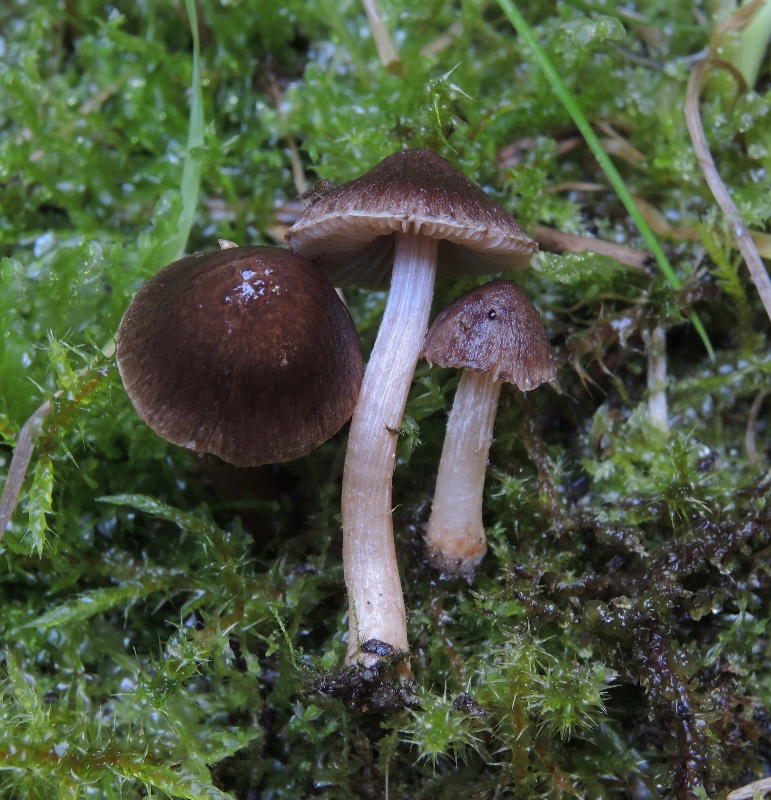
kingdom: Fungi
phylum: Basidiomycota
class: Agaricomycetes
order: Agaricales
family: Inocybaceae
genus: Inocybe
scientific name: Inocybe
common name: trævlhat
